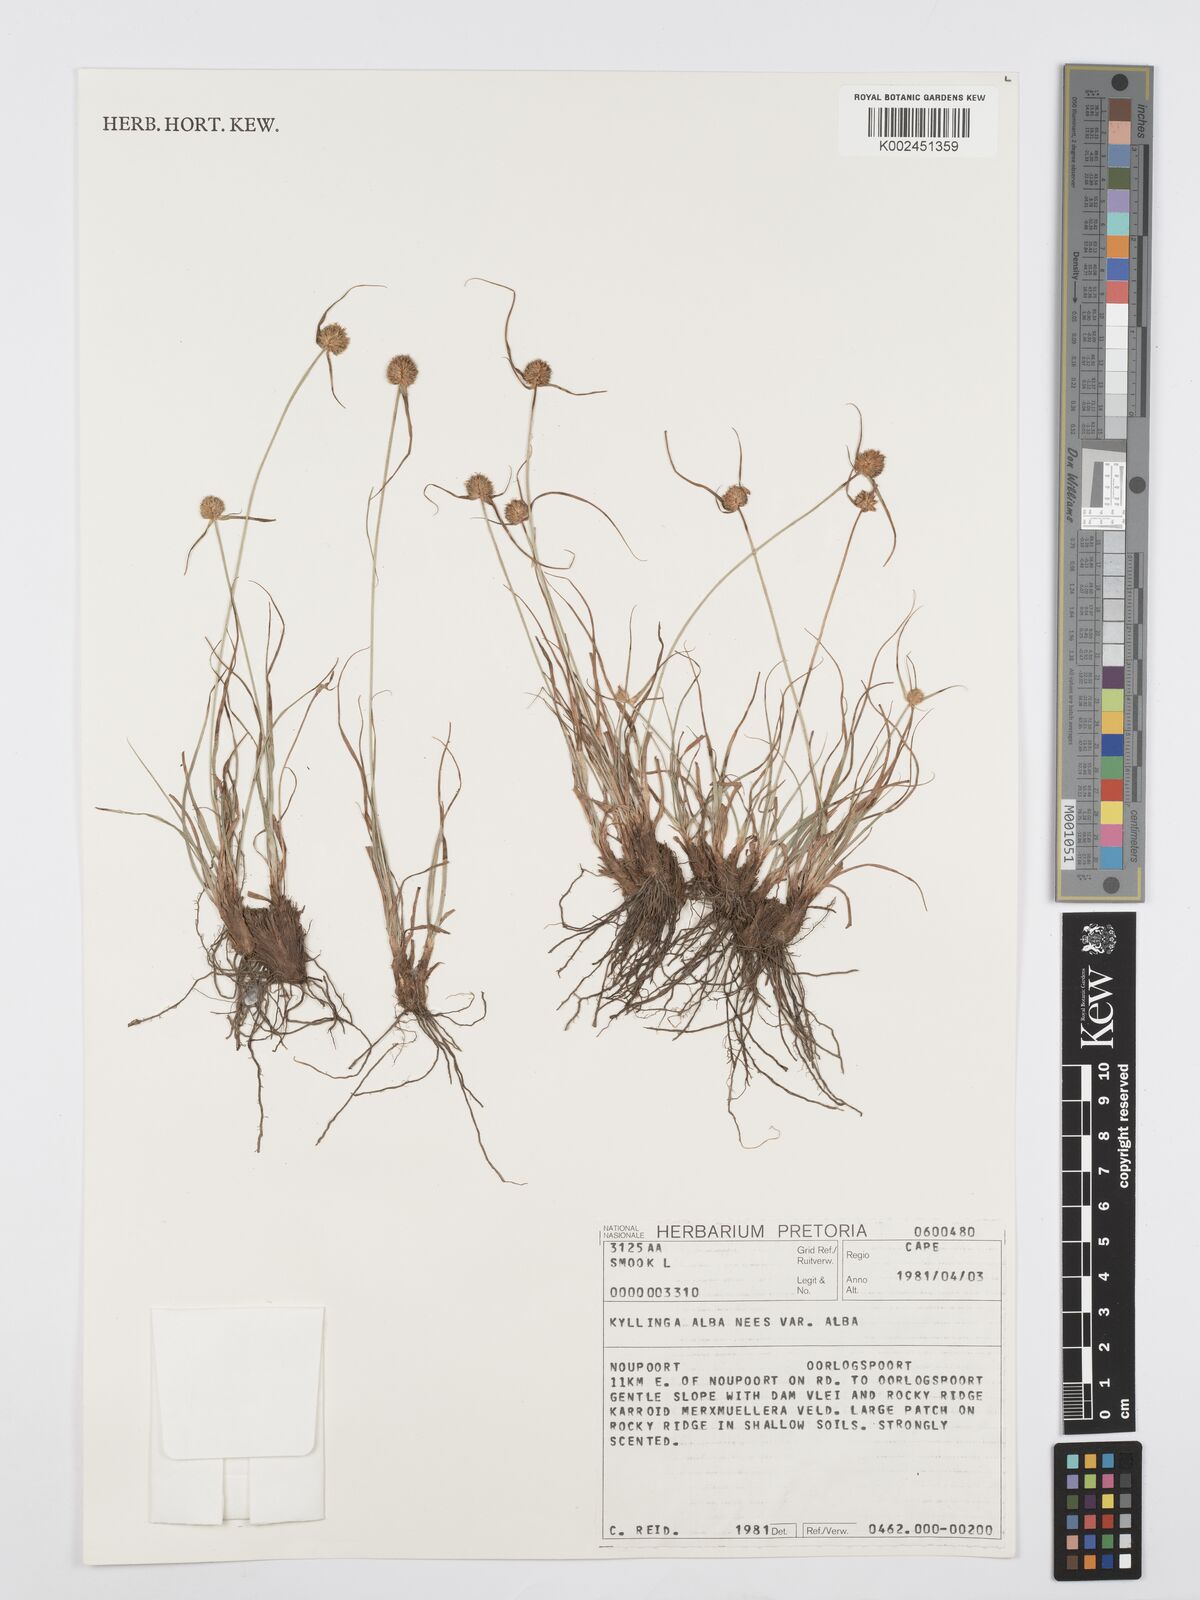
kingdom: Plantae
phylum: Tracheophyta
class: Liliopsida
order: Poales
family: Cyperaceae
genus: Cyperus
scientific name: Cyperus
